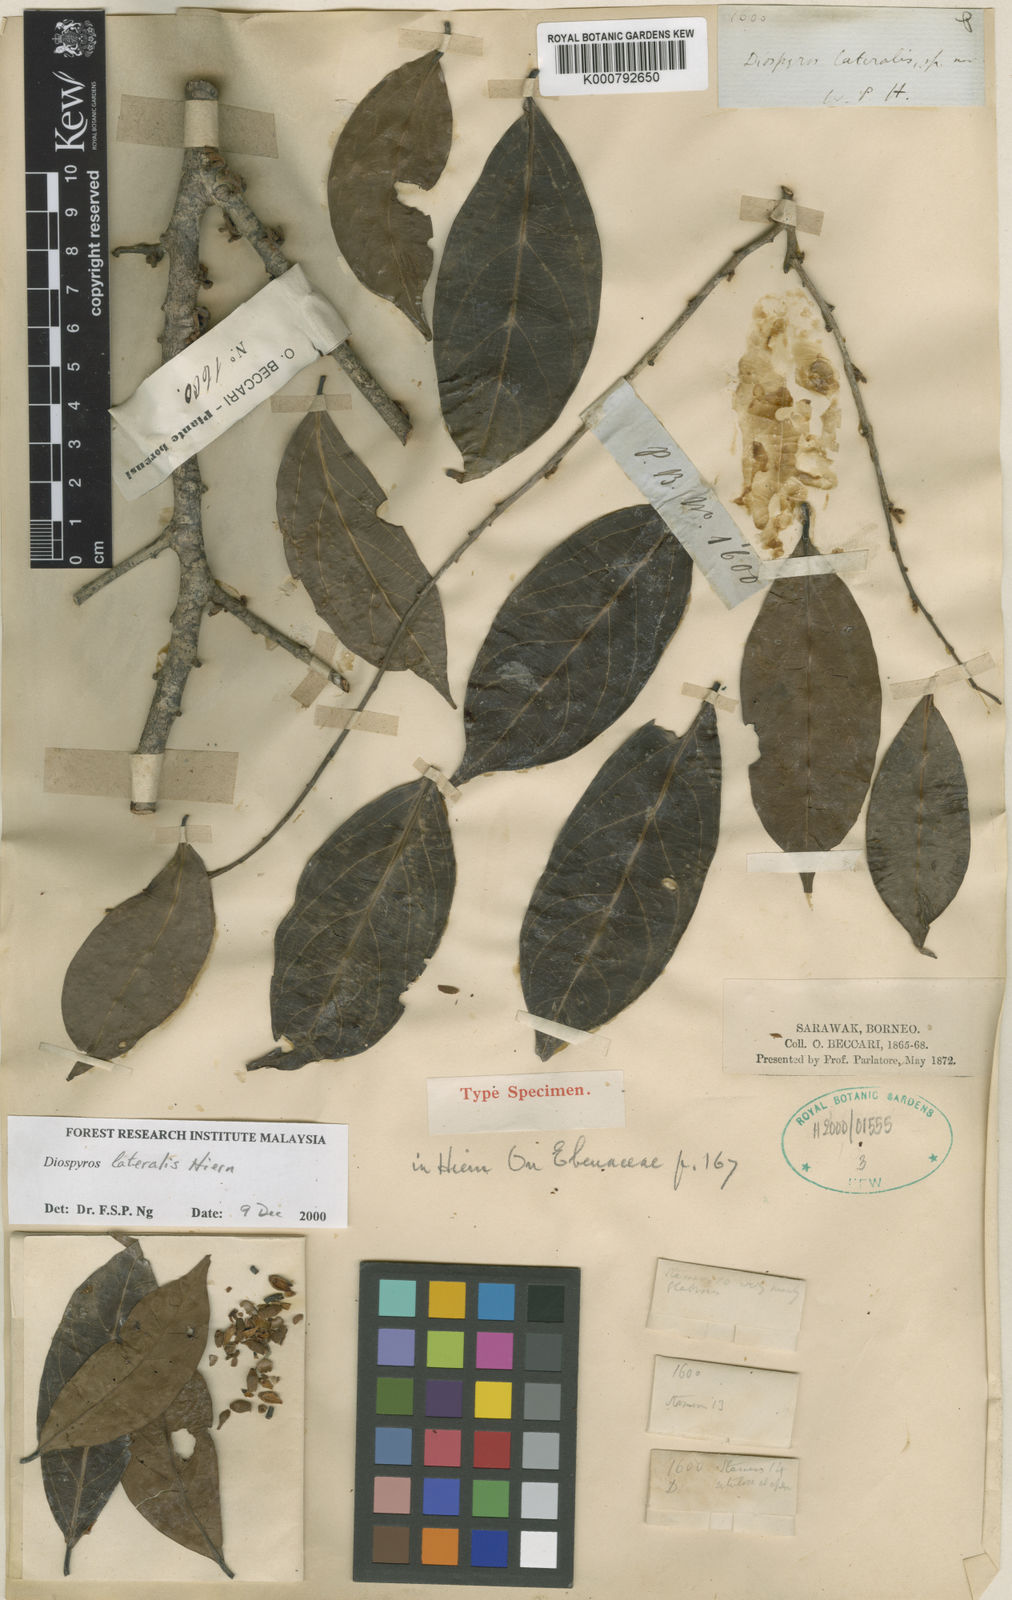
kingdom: Plantae
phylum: Tracheophyta
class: Magnoliopsida
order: Ericales
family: Ebenaceae
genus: Diospyros
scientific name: Diospyros lateralis
